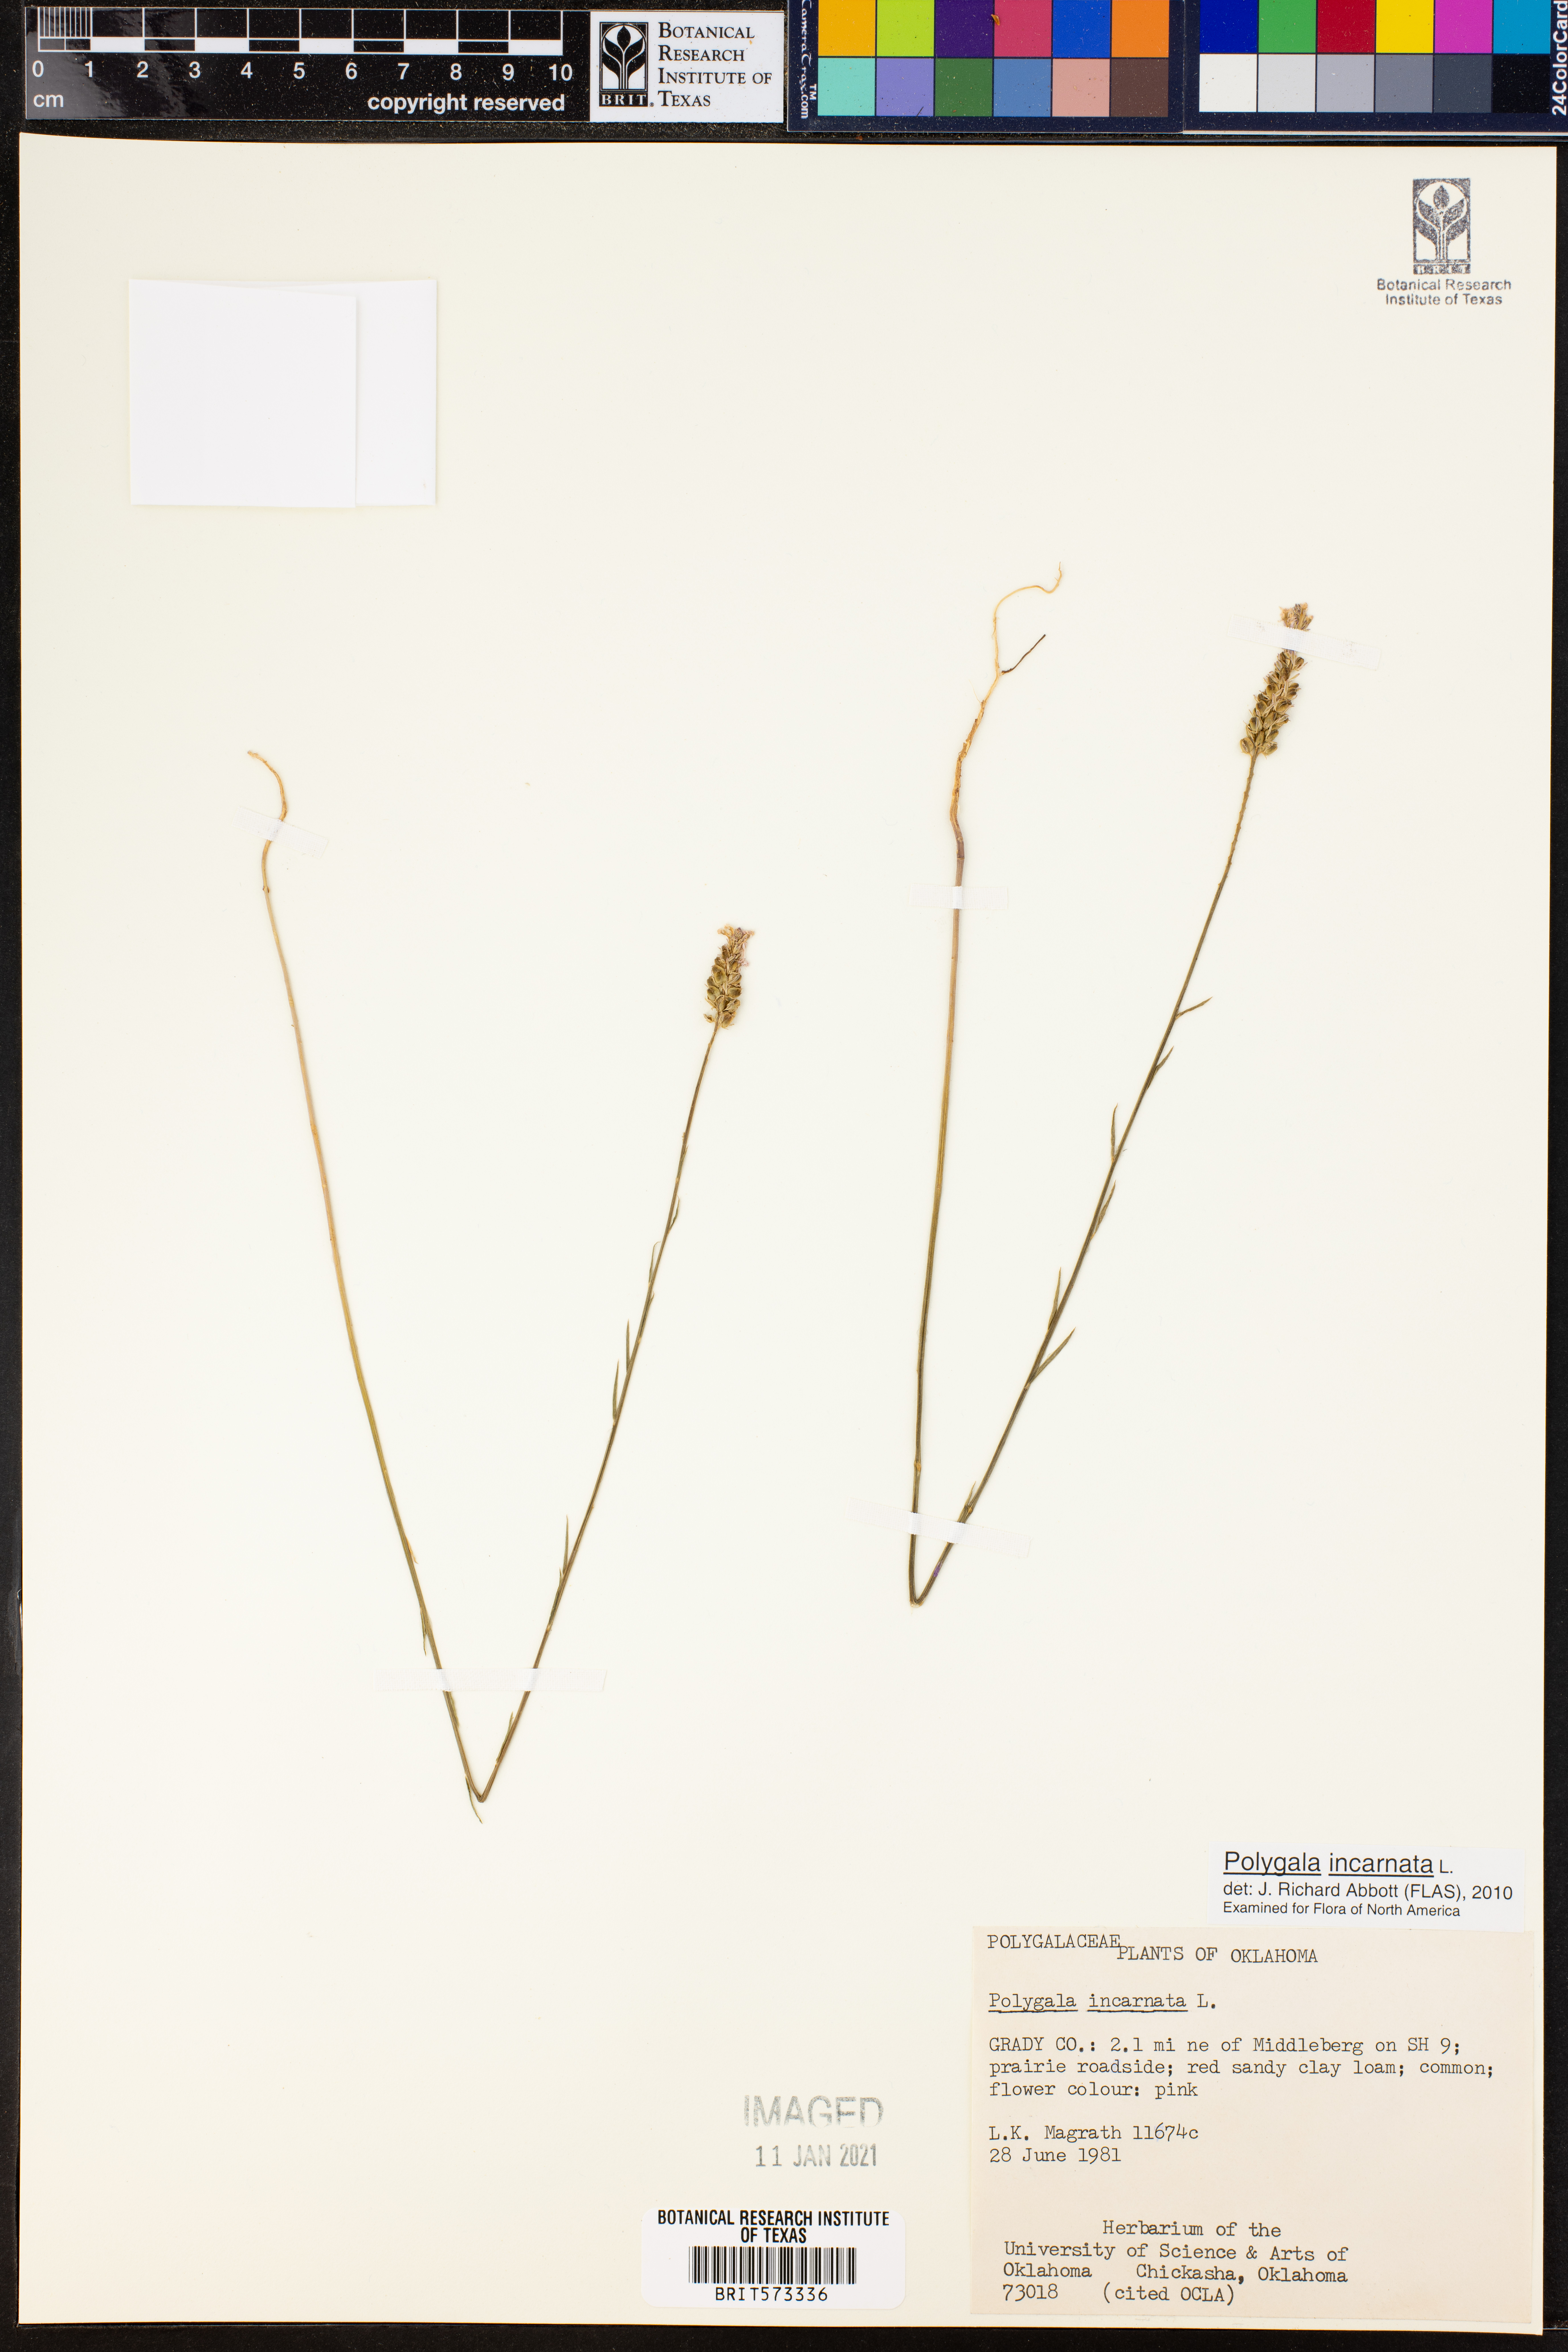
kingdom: Plantae
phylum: Tracheophyta
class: Magnoliopsida
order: Fabales
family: Polygalaceae
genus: Polygala
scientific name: Polygala incarnata
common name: Pink milkwort
